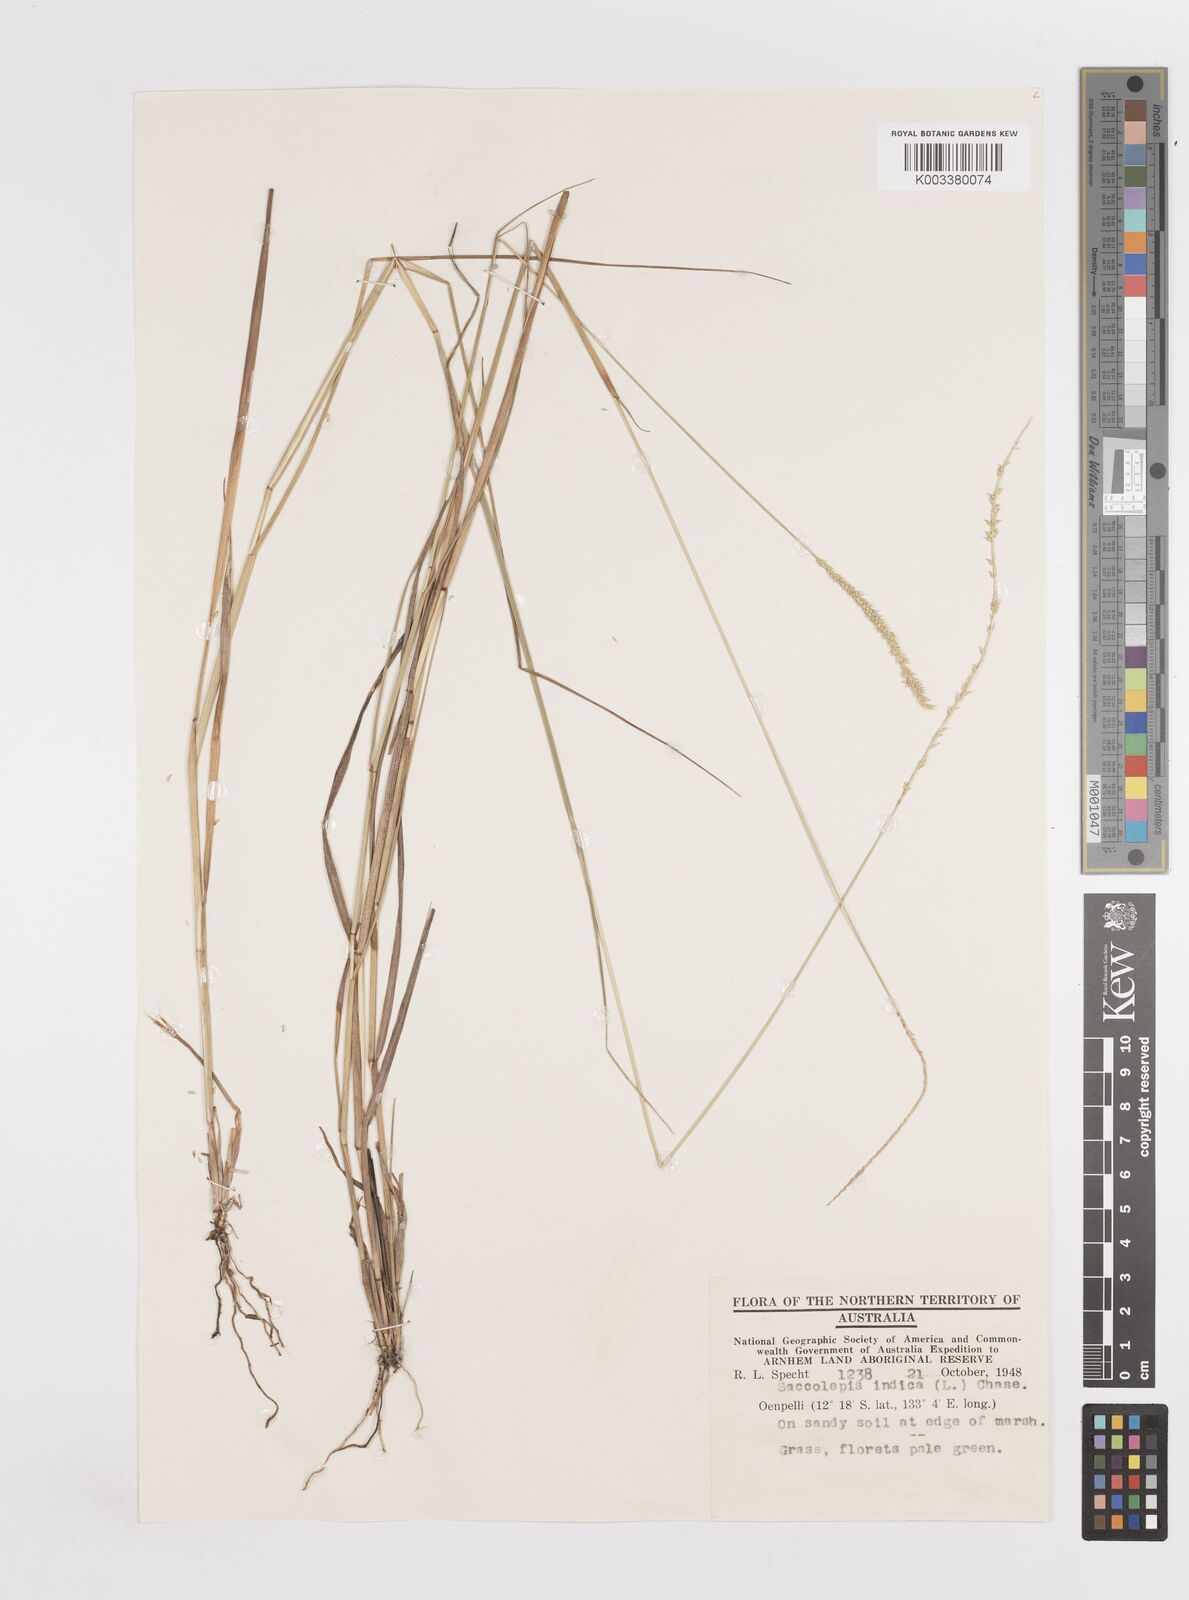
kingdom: Plantae
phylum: Tracheophyta
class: Liliopsida
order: Poales
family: Poaceae
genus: Sacciolepis
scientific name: Sacciolepis indica
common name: Glenwoodgrass
